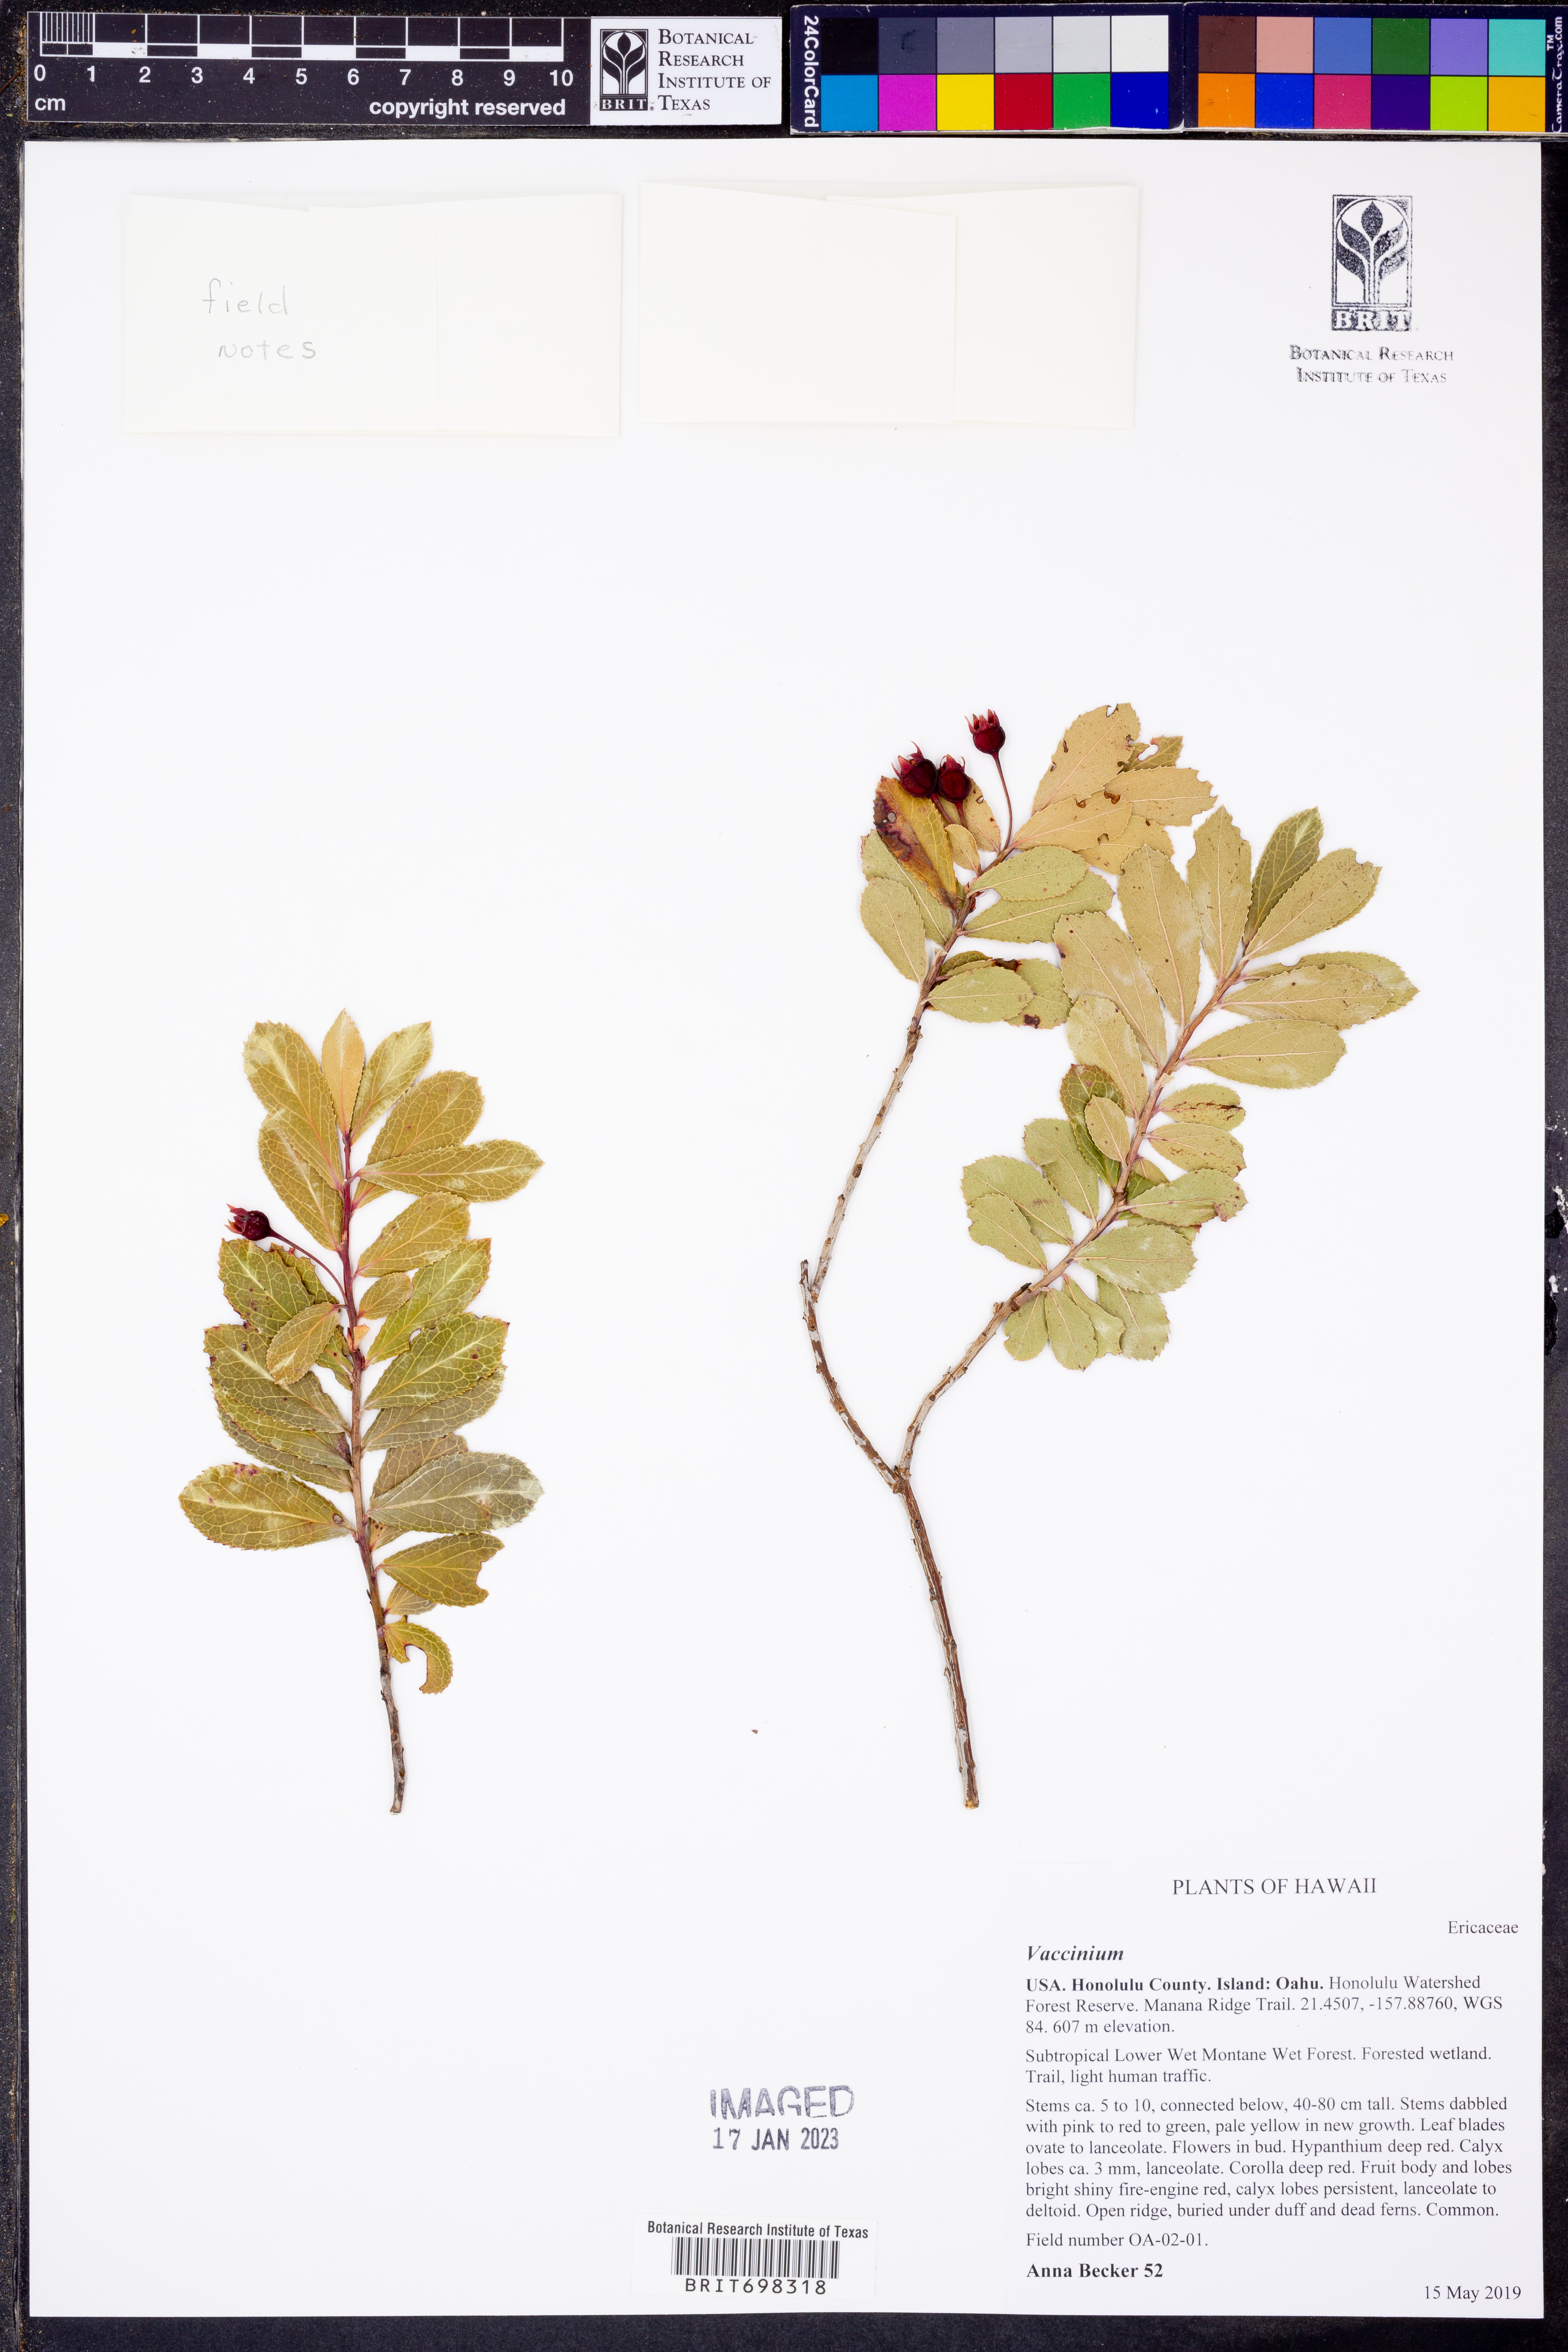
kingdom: Plantae
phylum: Tracheophyta
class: Magnoliopsida
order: Ericales
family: Ericaceae
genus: Vaccinium
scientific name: Vaccinium
